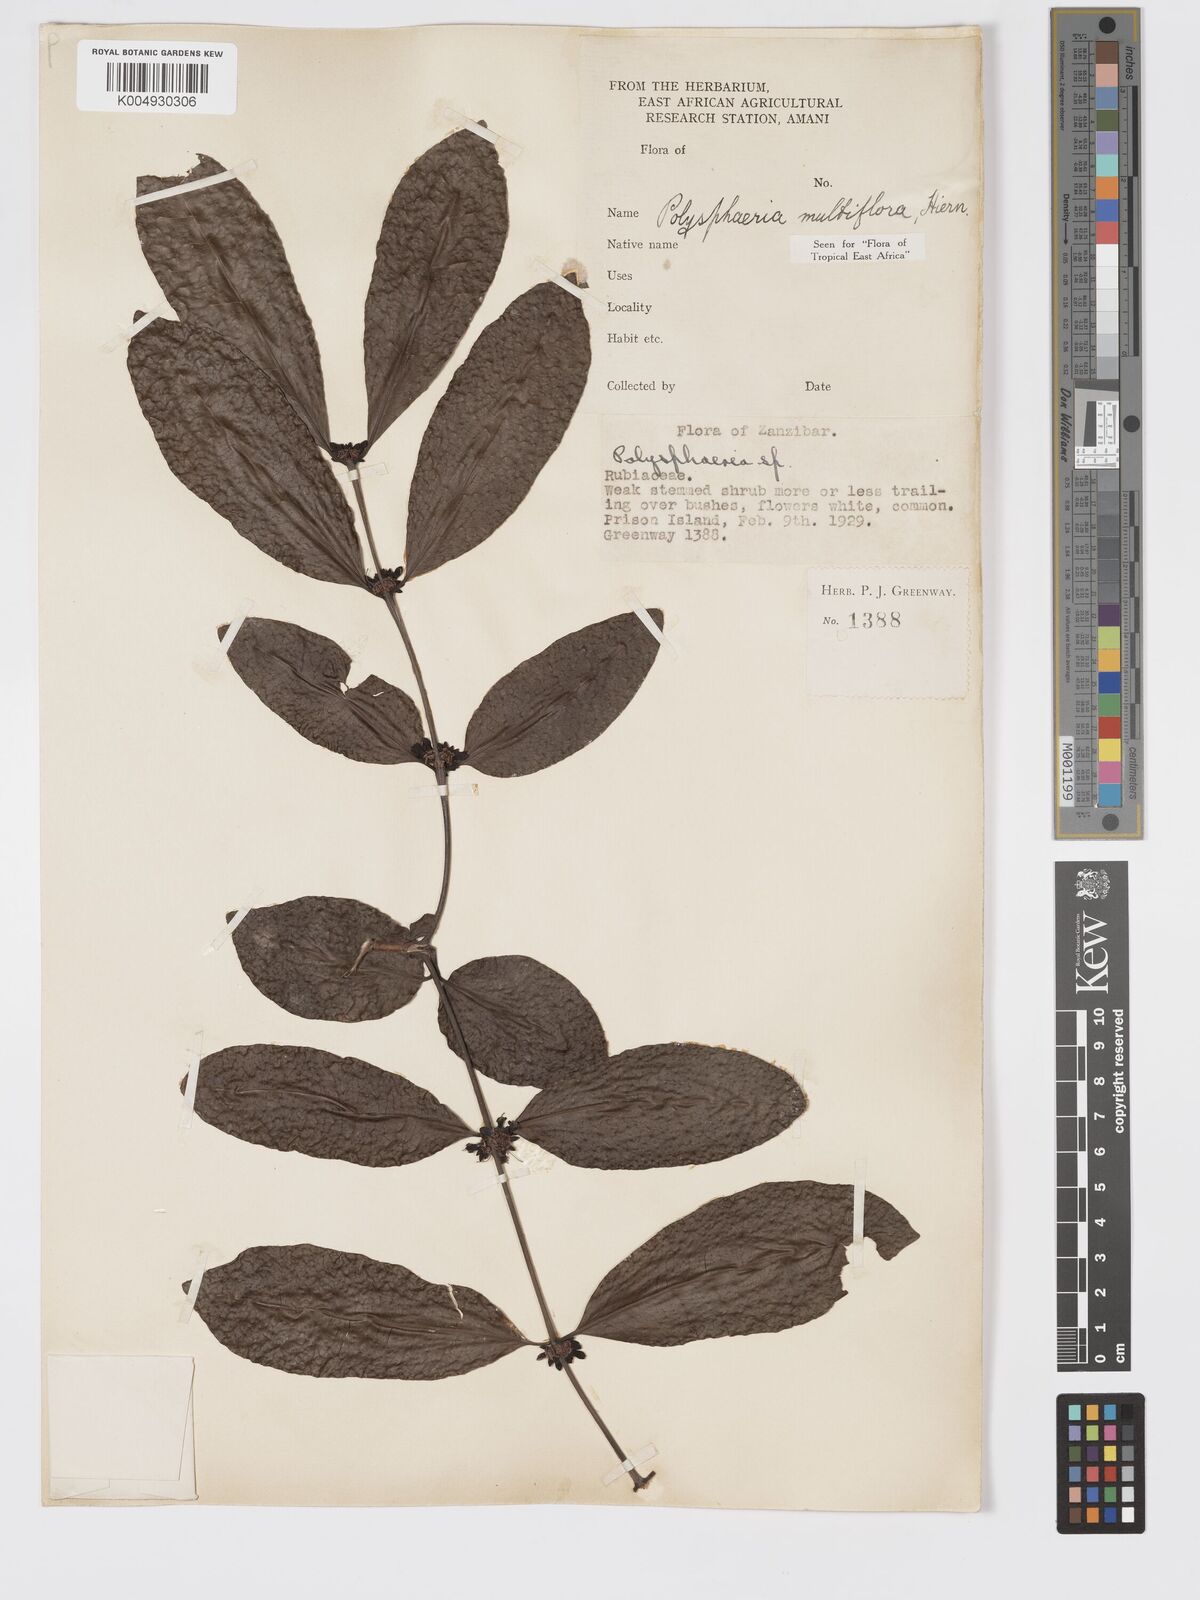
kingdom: Plantae
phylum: Tracheophyta
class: Magnoliopsida
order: Gentianales
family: Rubiaceae
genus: Polysphaeria
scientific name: Polysphaeria multiflora
